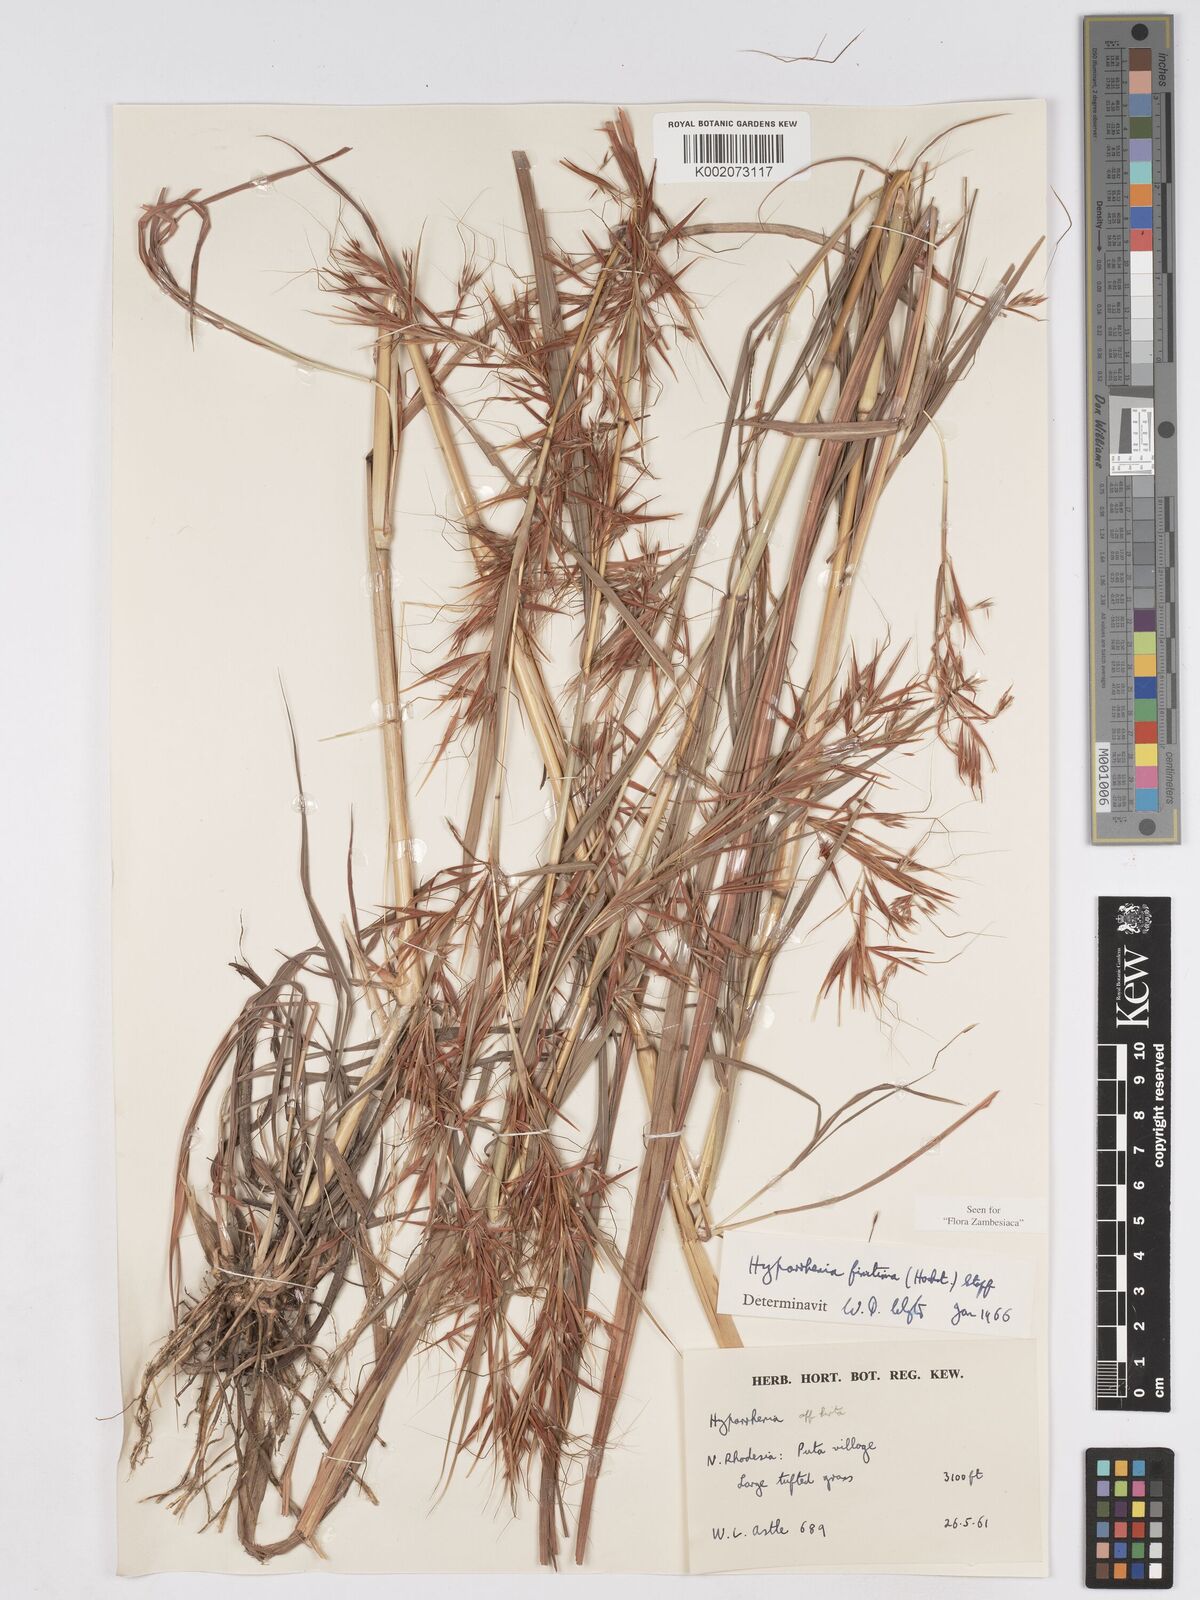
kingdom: Plantae
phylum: Tracheophyta
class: Liliopsida
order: Poales
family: Poaceae
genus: Hyparrhenia
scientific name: Hyparrhenia finitima
